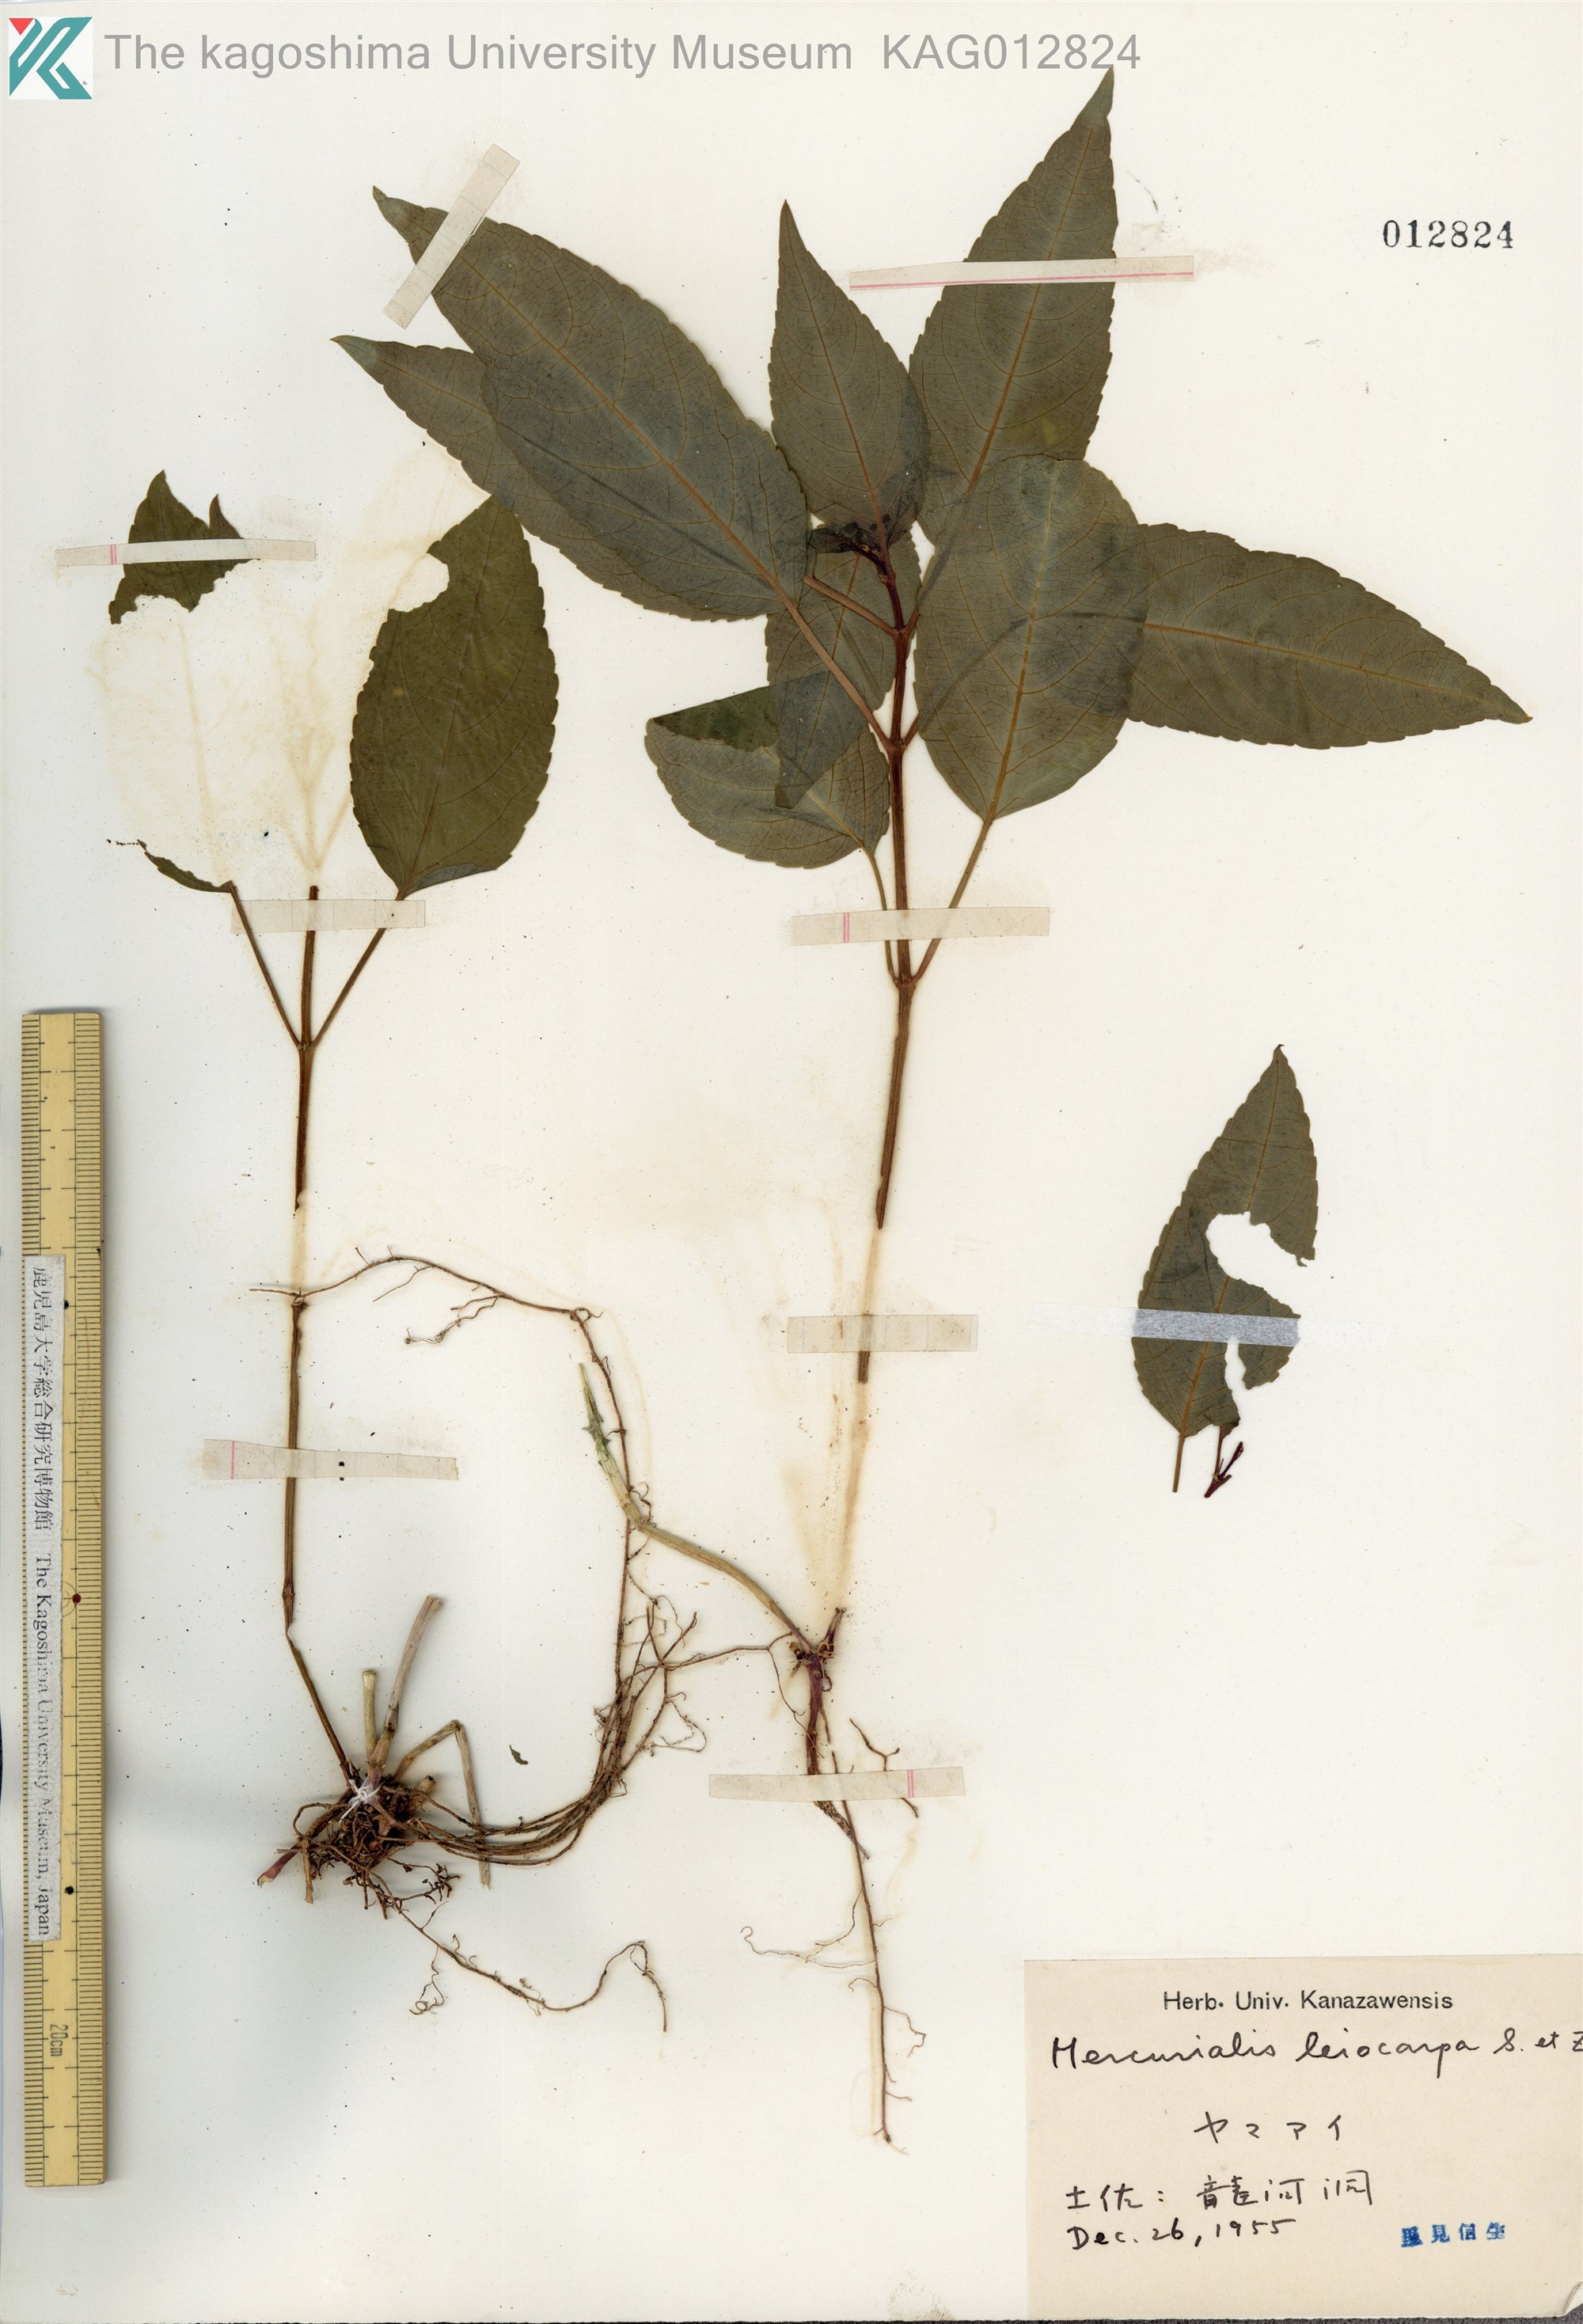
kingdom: Plantae
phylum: Tracheophyta
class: Magnoliopsida
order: Malpighiales
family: Euphorbiaceae
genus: Mercurialis
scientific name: Mercurialis leiocarpa
